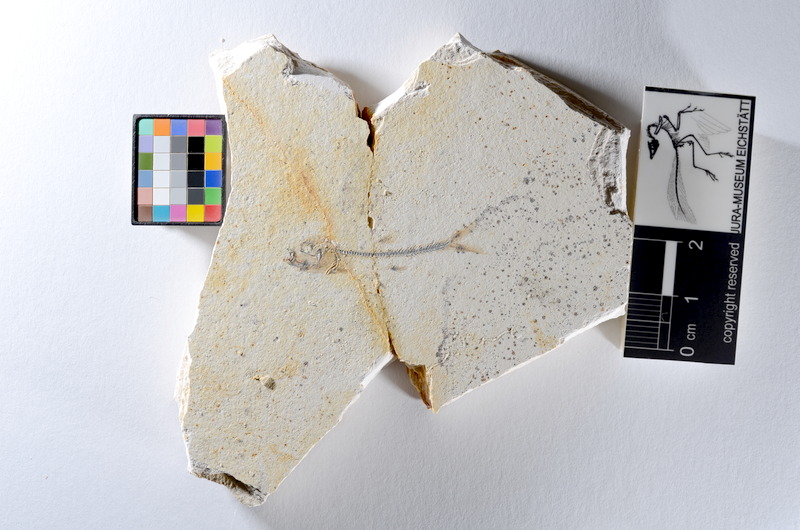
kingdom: Animalia
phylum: Chordata
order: Salmoniformes
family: Orthogonikleithridae
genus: Orthogonikleithrus
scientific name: Orthogonikleithrus hoelli
